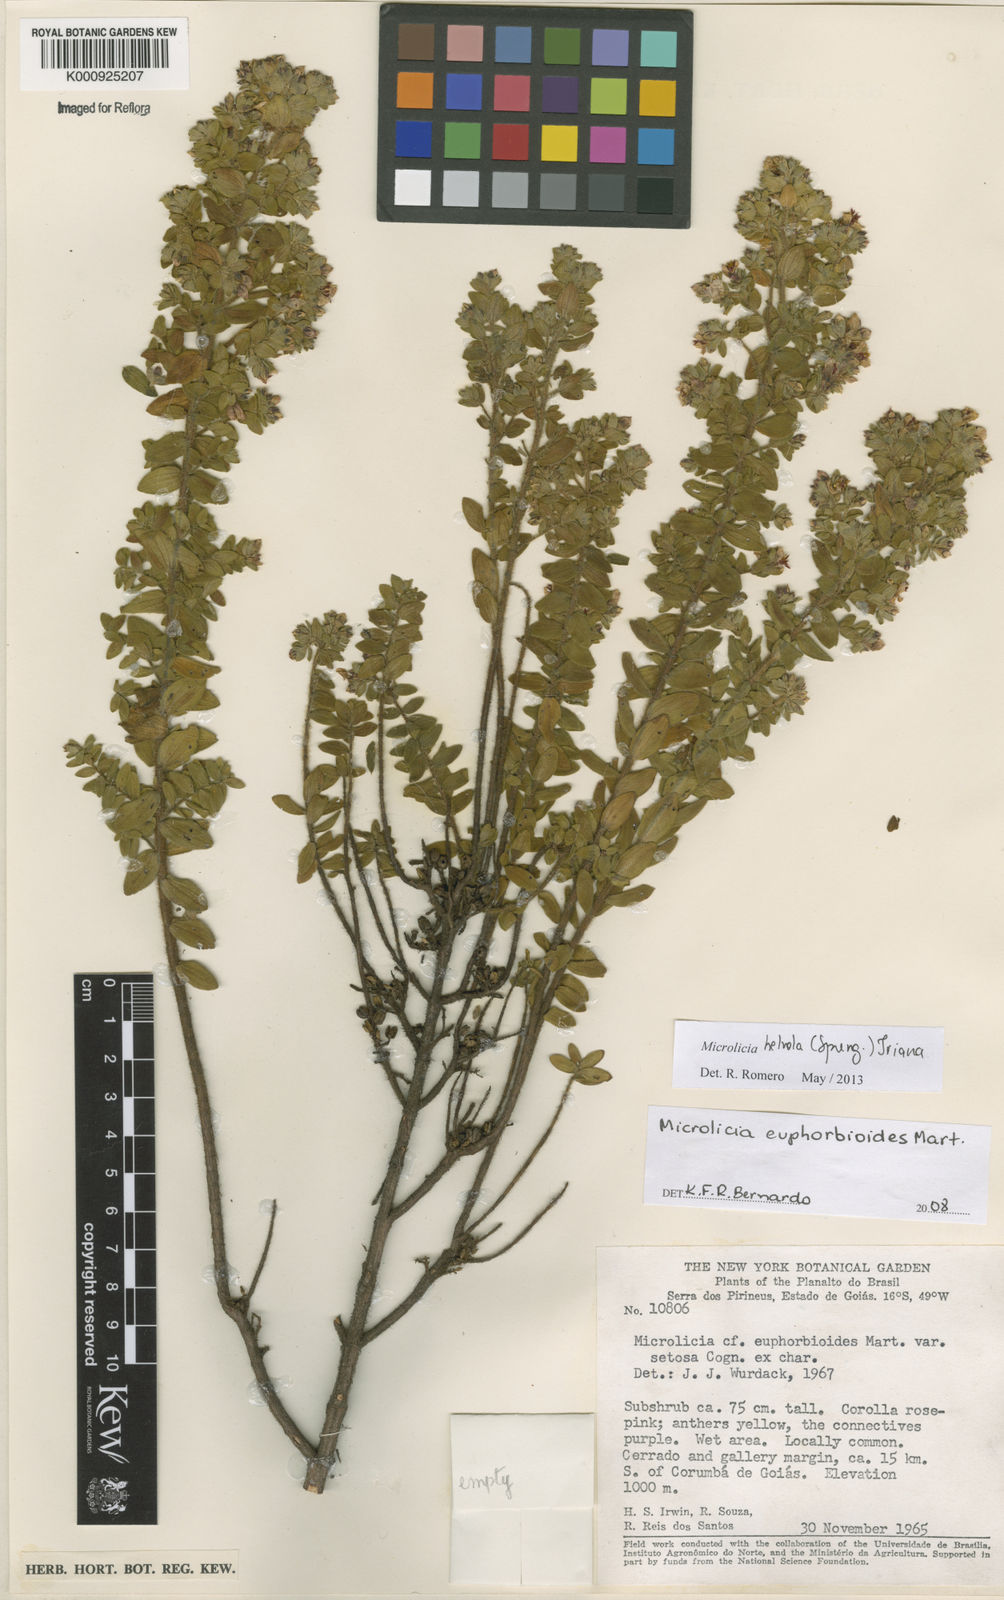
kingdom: Plantae
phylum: Tracheophyta
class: Magnoliopsida
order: Myrtales
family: Melastomataceae
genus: Microlicia
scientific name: Microlicia helvola
